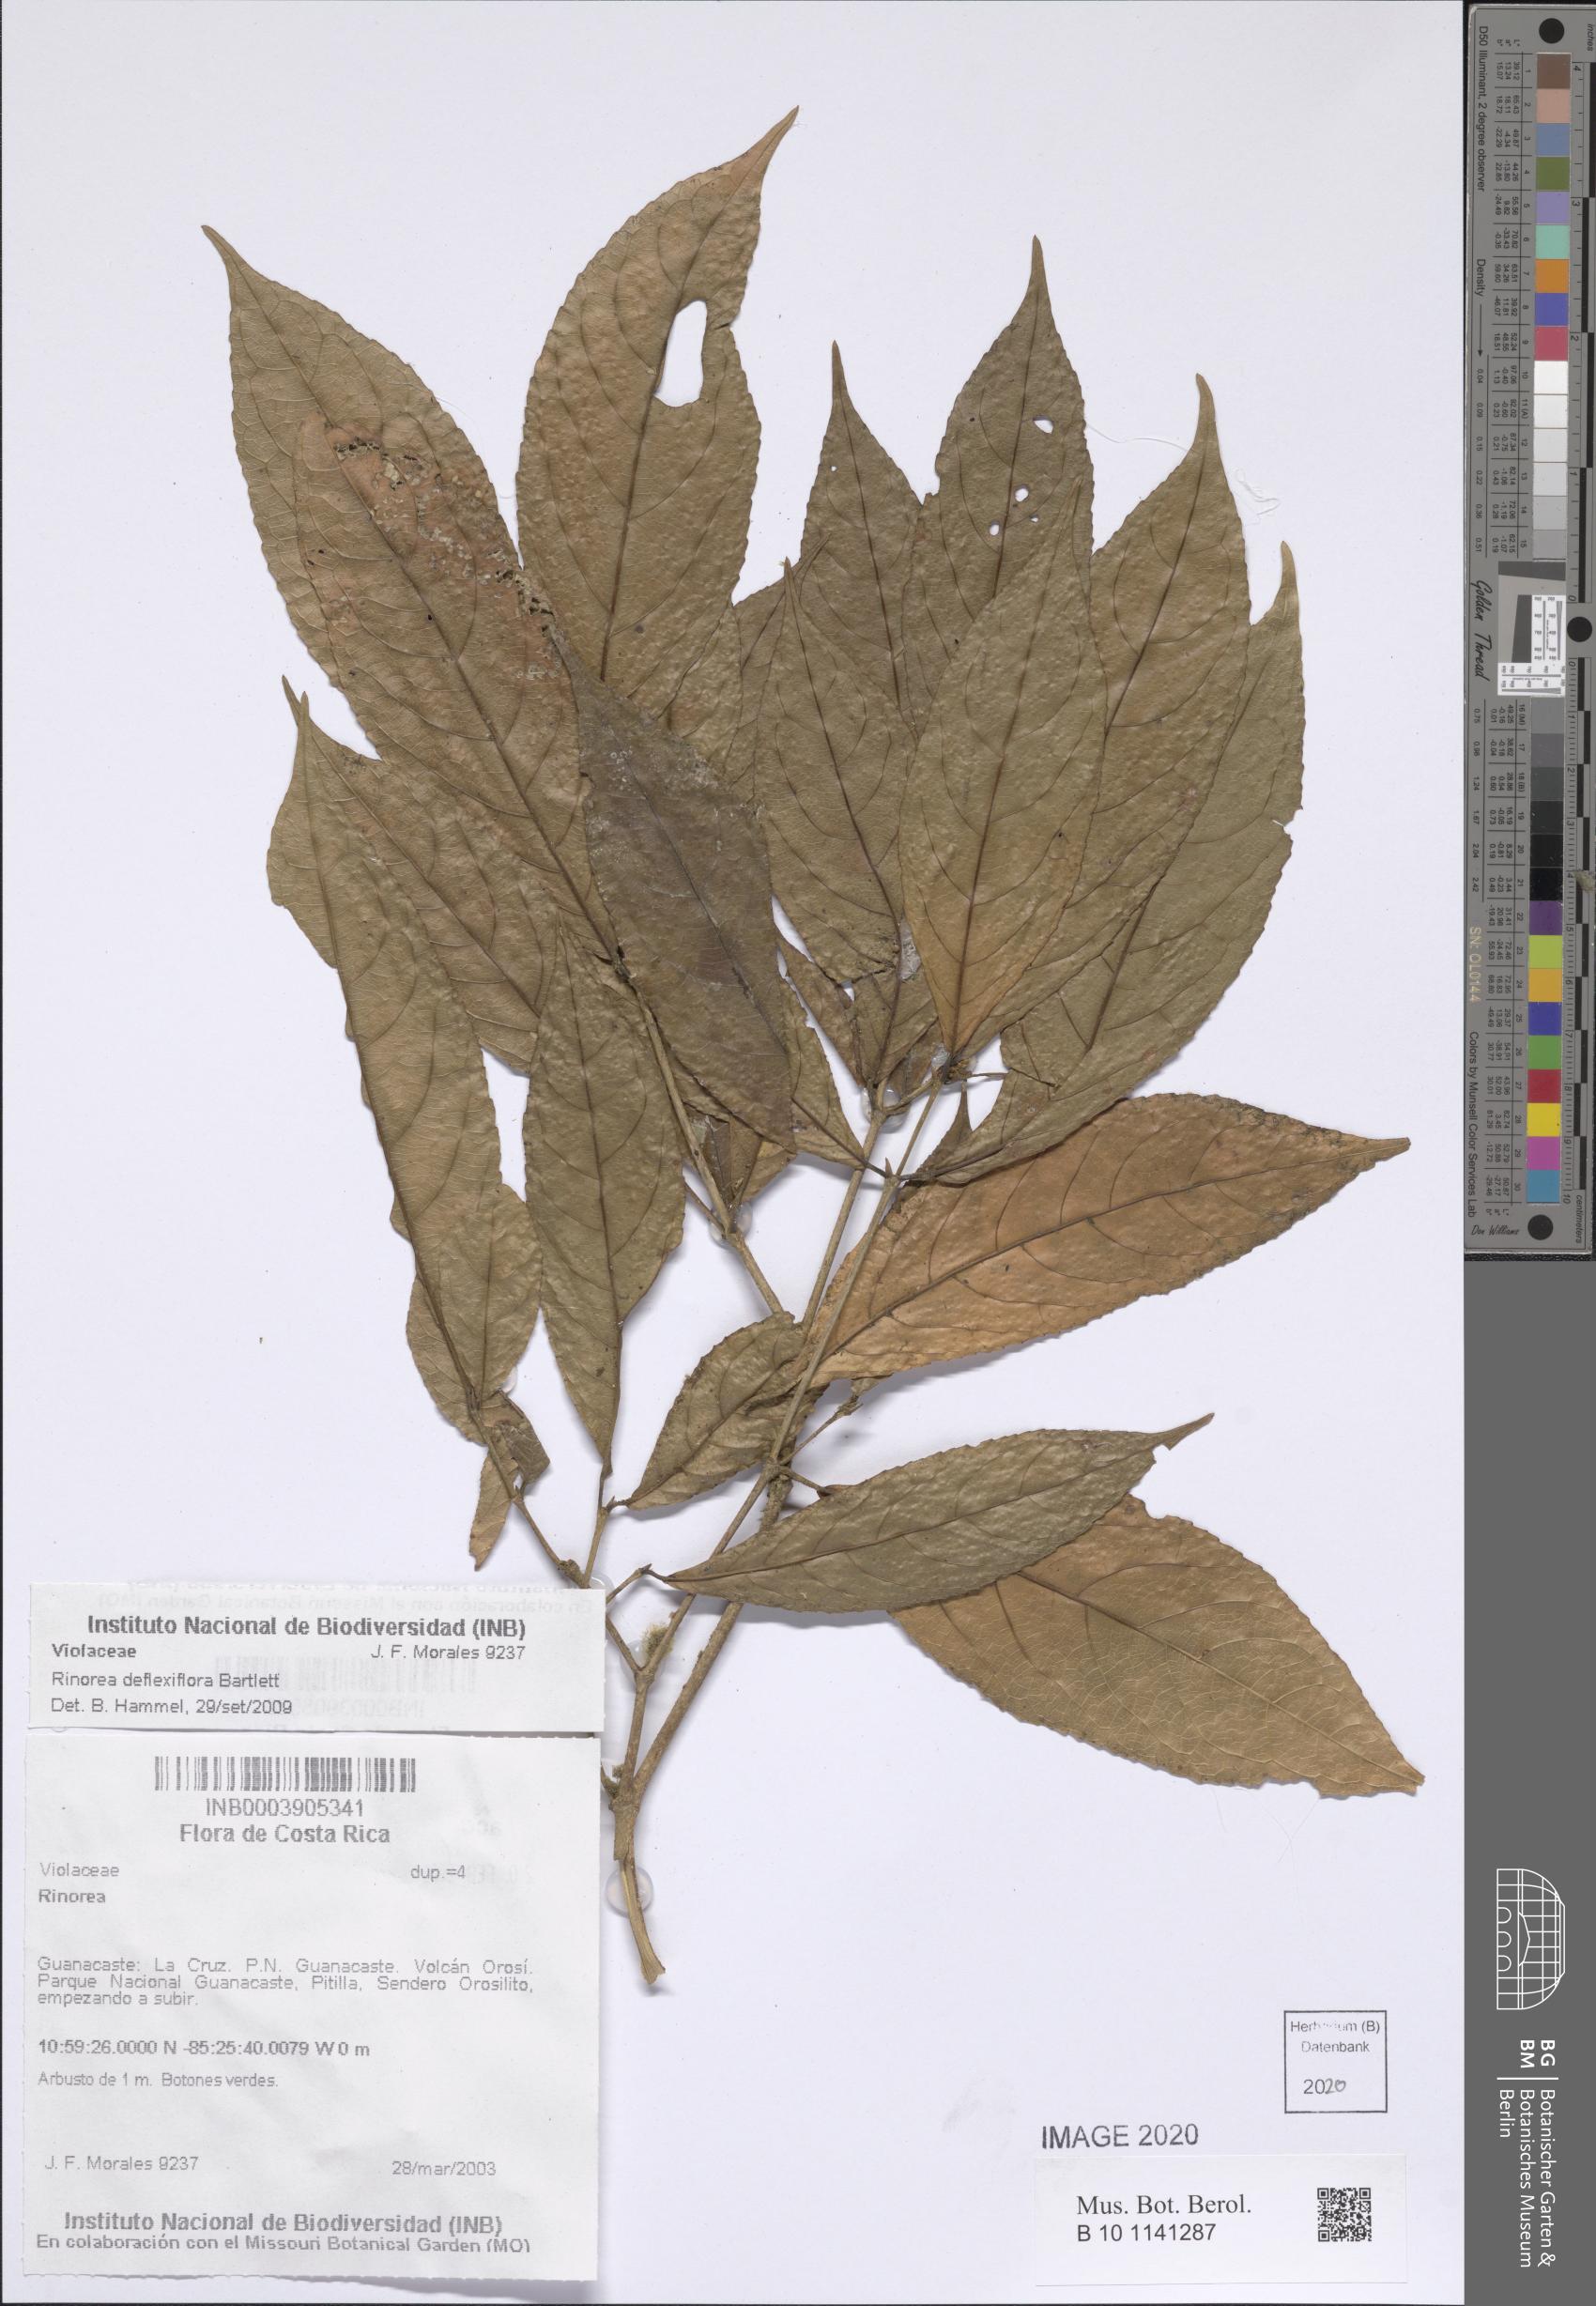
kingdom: Plantae
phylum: Tracheophyta
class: Magnoliopsida
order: Malpighiales
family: Violaceae
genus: Rinorea
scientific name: Rinorea deflexiflora
